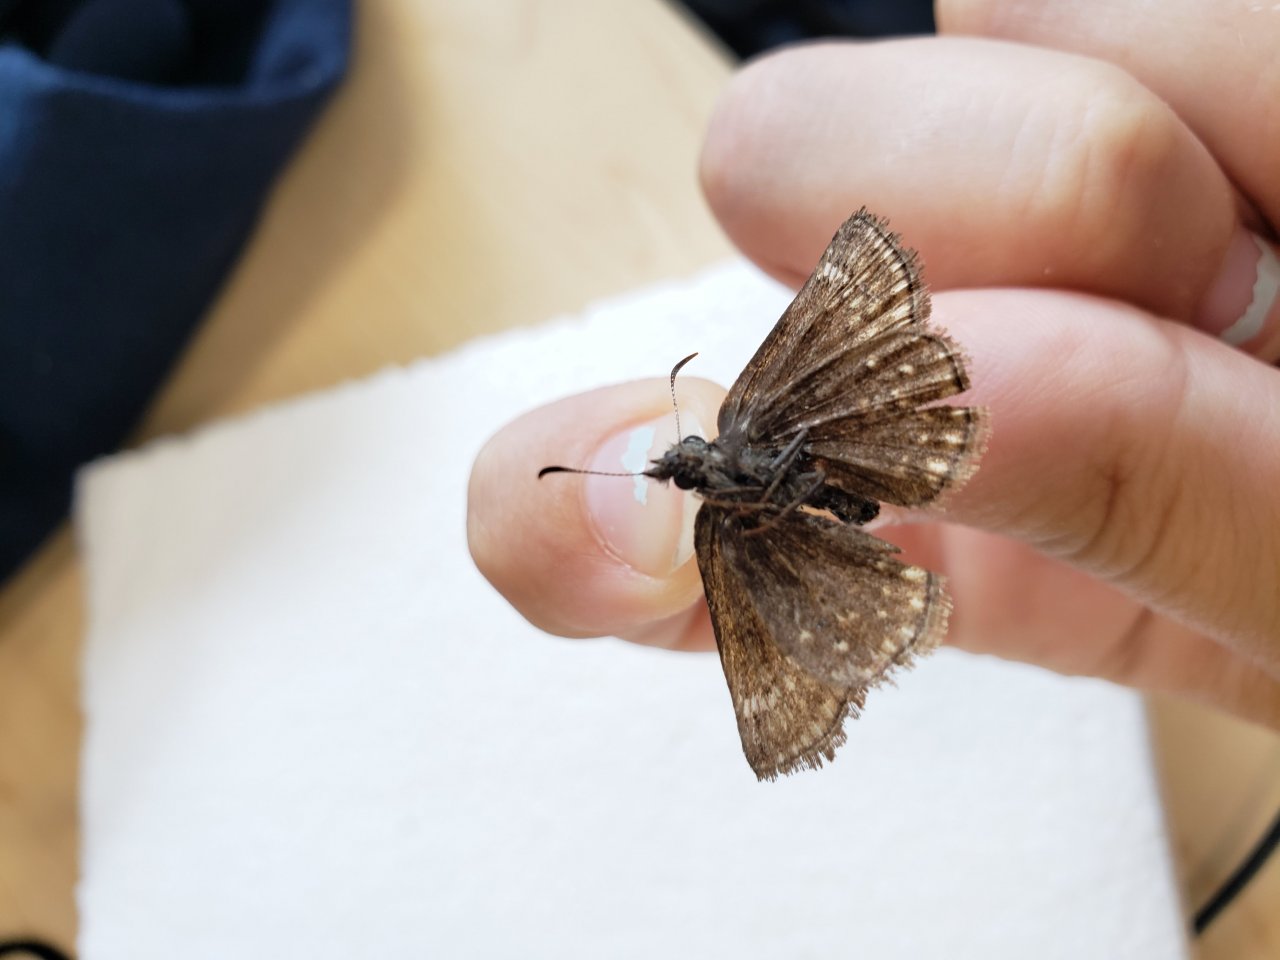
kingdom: Animalia
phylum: Arthropoda
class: Insecta
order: Lepidoptera
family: Hesperiidae
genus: Erynnis
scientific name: Erynnis icelus
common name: Dreamy Duskywing
